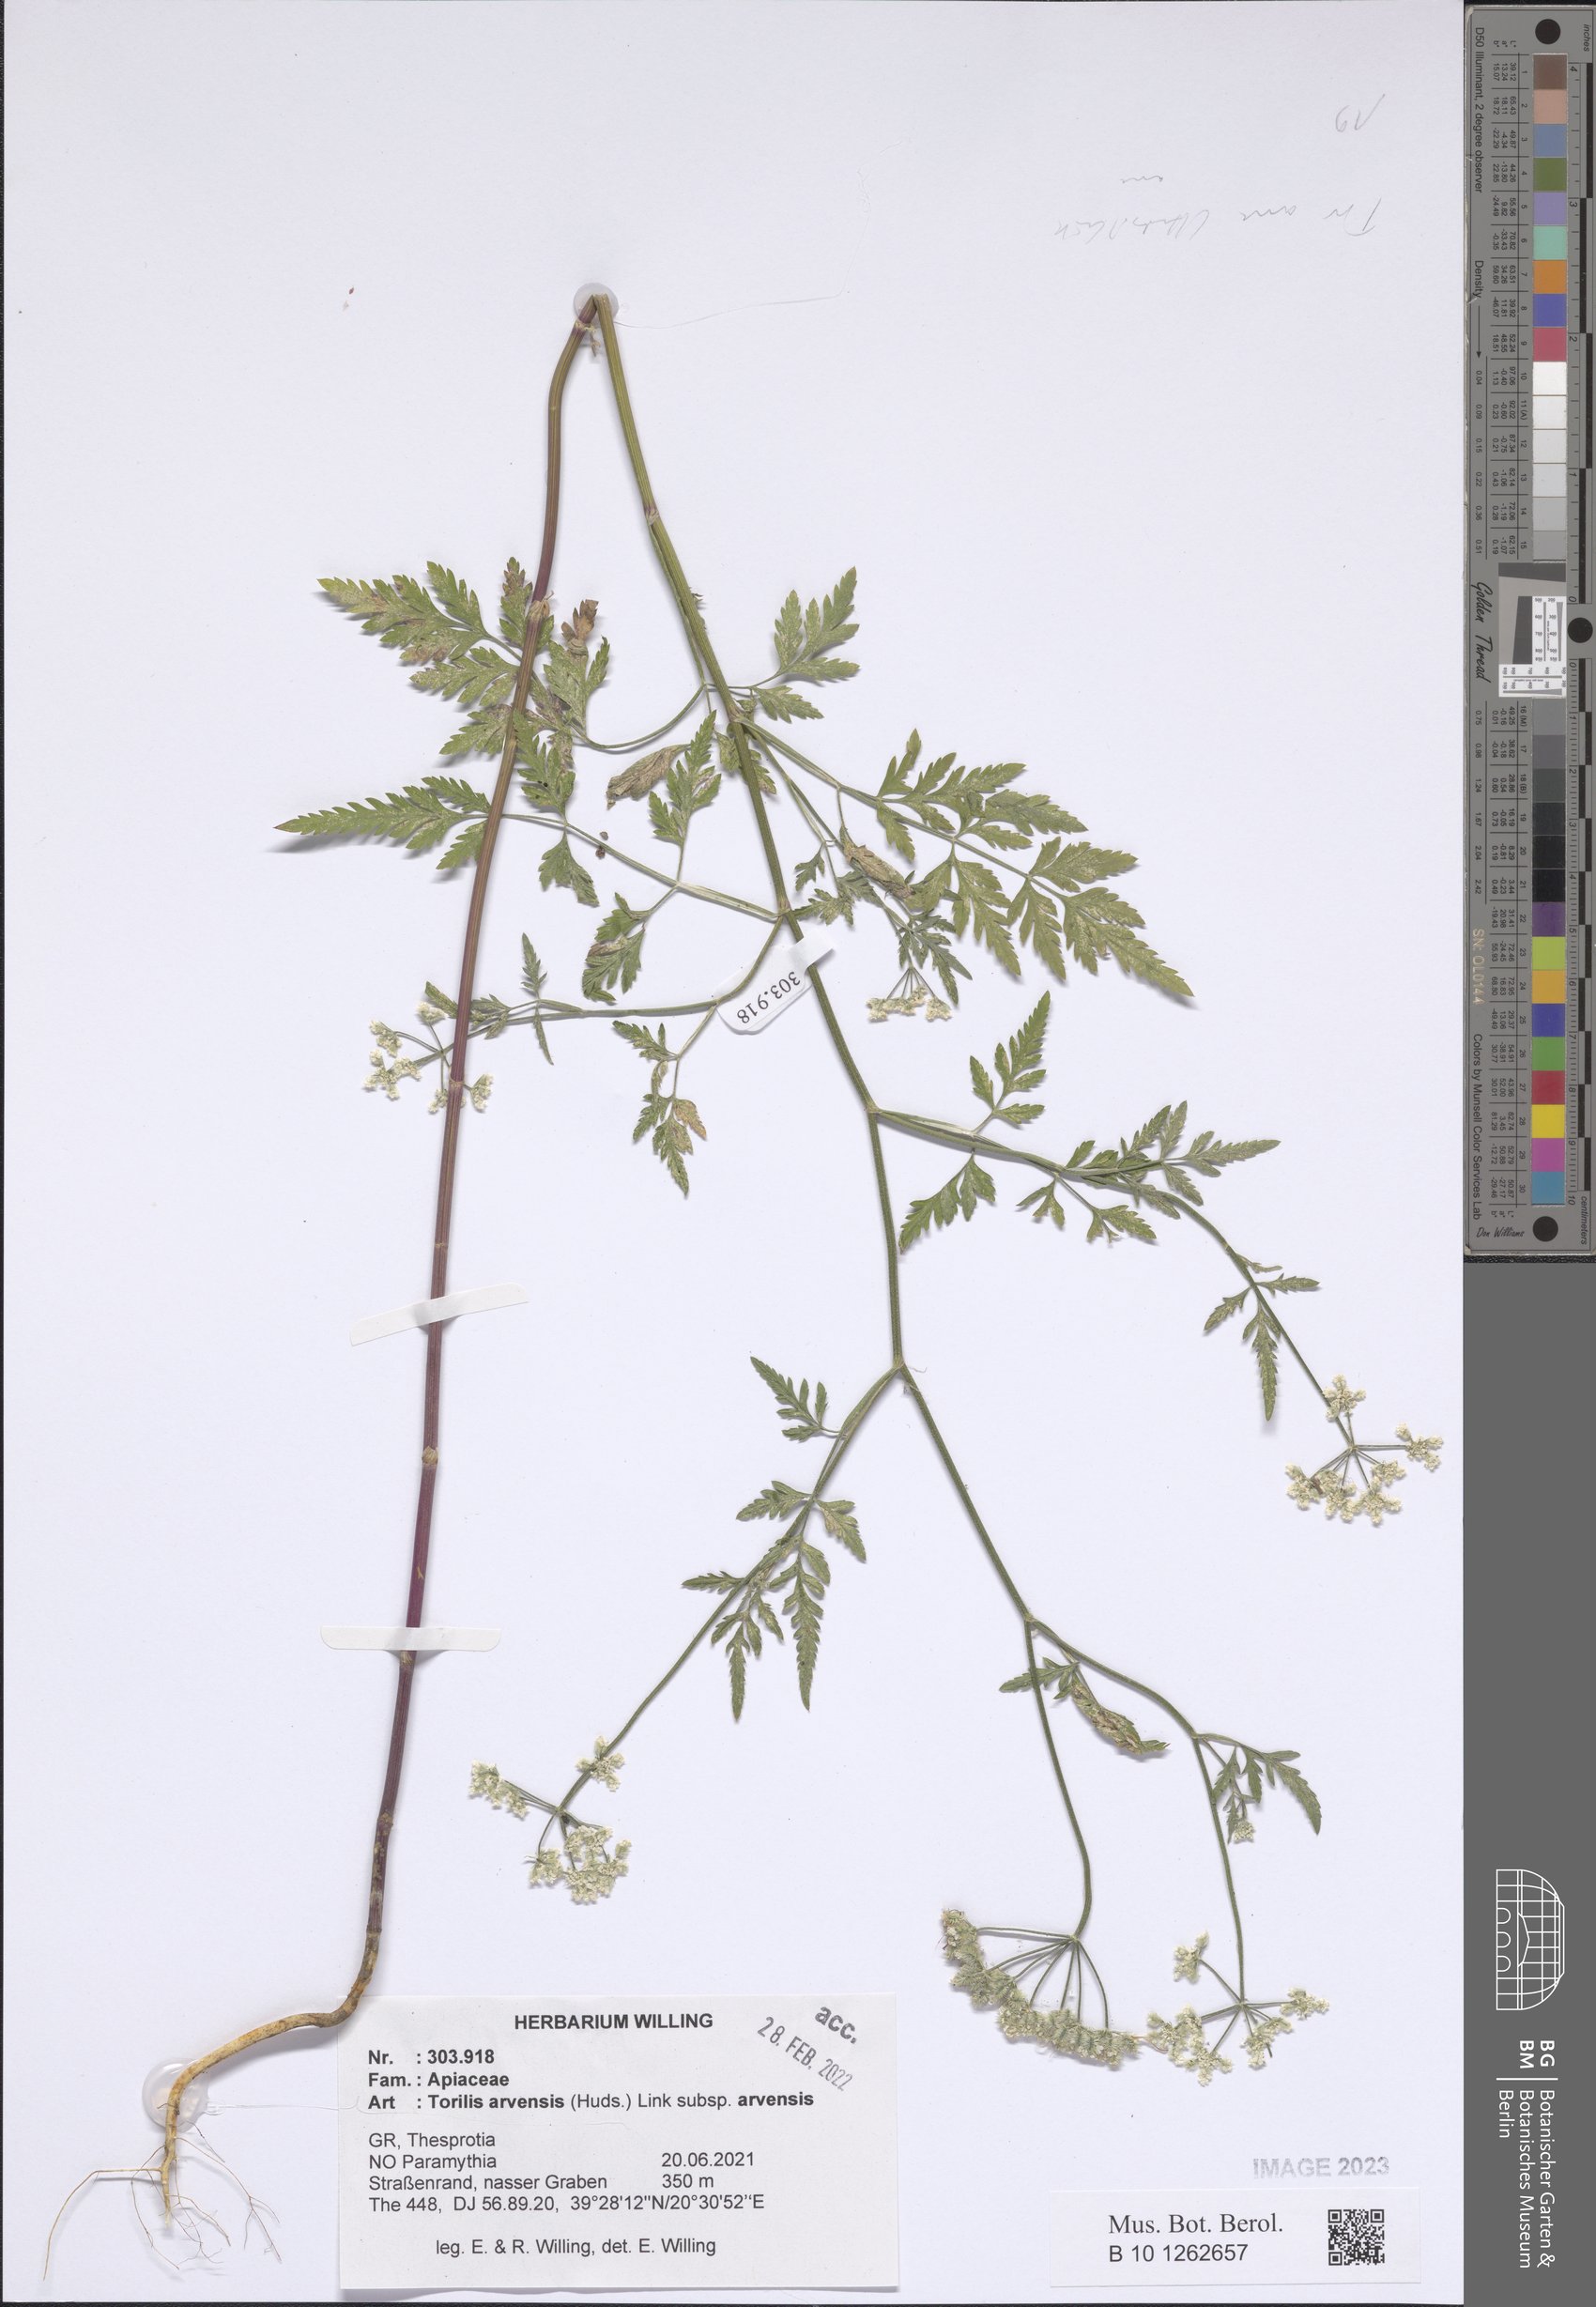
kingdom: Plantae
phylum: Tracheophyta
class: Magnoliopsida
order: Apiales
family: Apiaceae
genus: Torilis
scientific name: Torilis arvensis
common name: Spreading hedge-parsley
